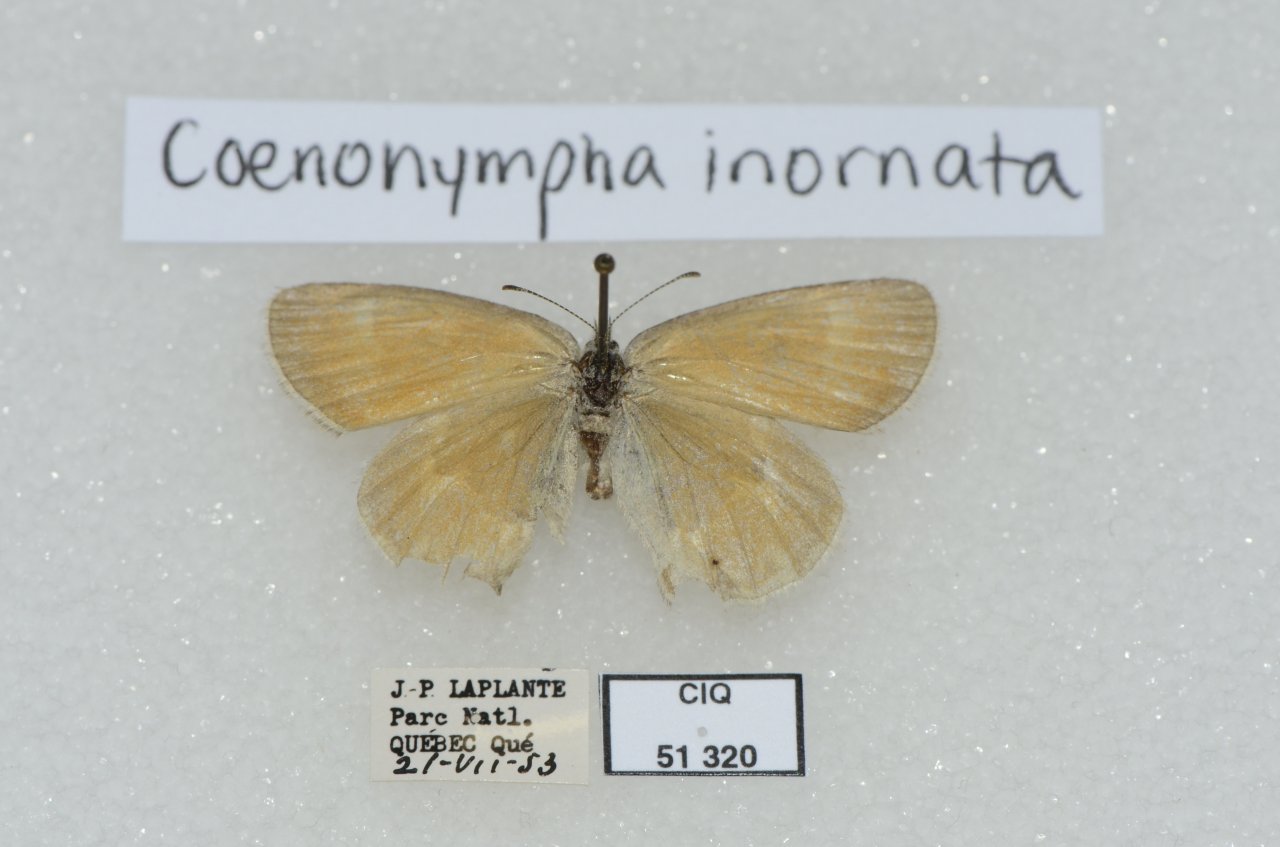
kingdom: Animalia
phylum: Arthropoda
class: Insecta
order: Lepidoptera
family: Nymphalidae
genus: Coenonympha
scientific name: Coenonympha tullia
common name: Large Heath
